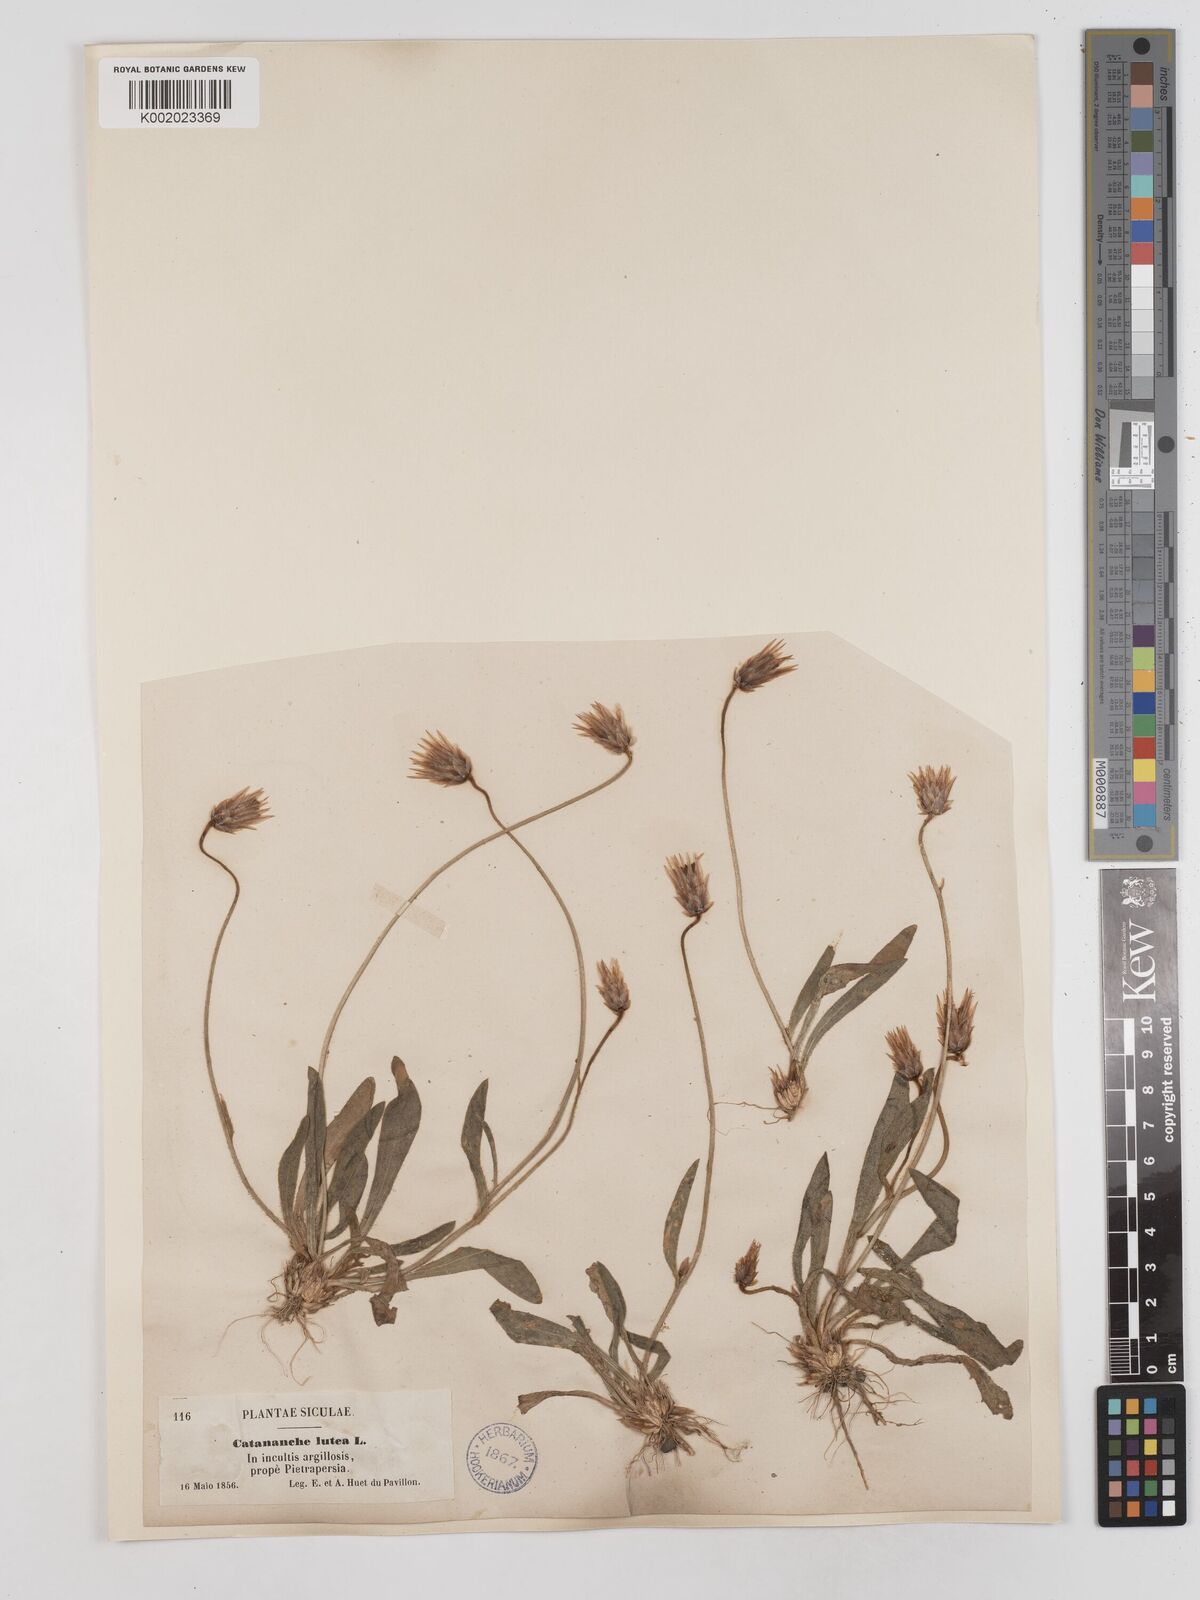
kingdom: Plantae
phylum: Tracheophyta
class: Magnoliopsida
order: Asterales
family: Asteraceae
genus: Catananche
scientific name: Catananche lutea
